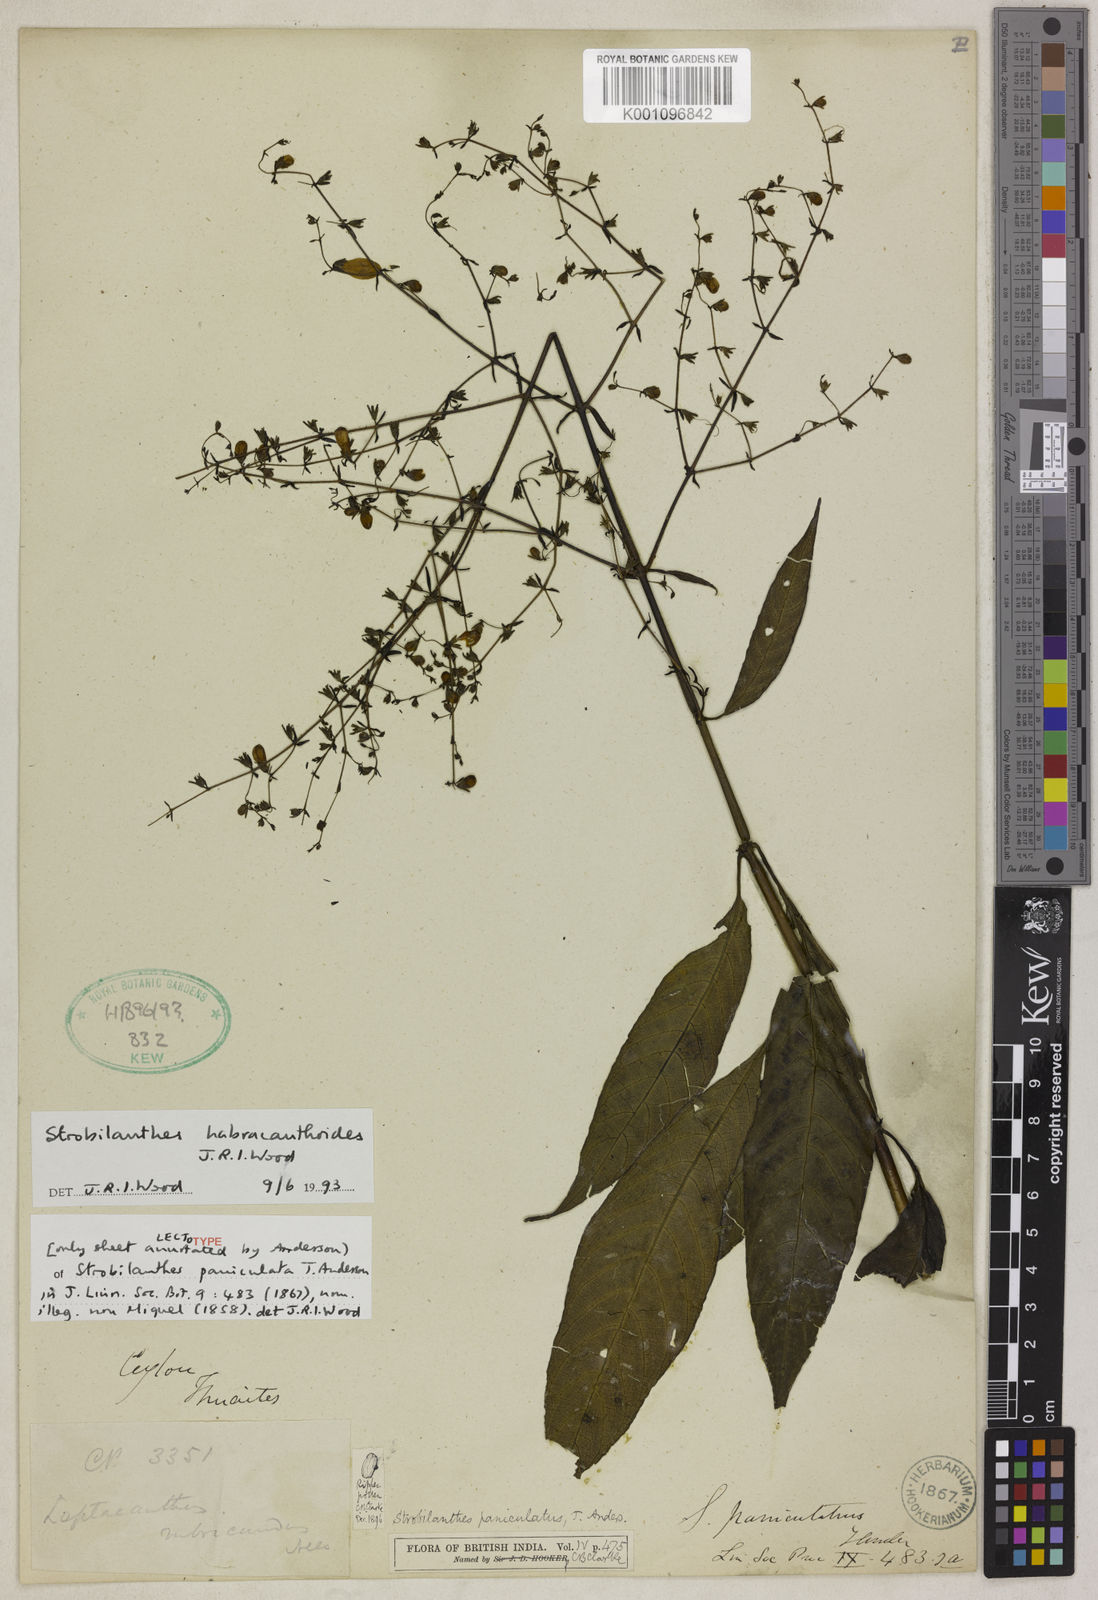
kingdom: Plantae
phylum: Tracheophyta
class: Magnoliopsida
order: Lamiales
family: Acanthaceae
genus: Strobilanthes
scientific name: Strobilanthes habracanthoides
